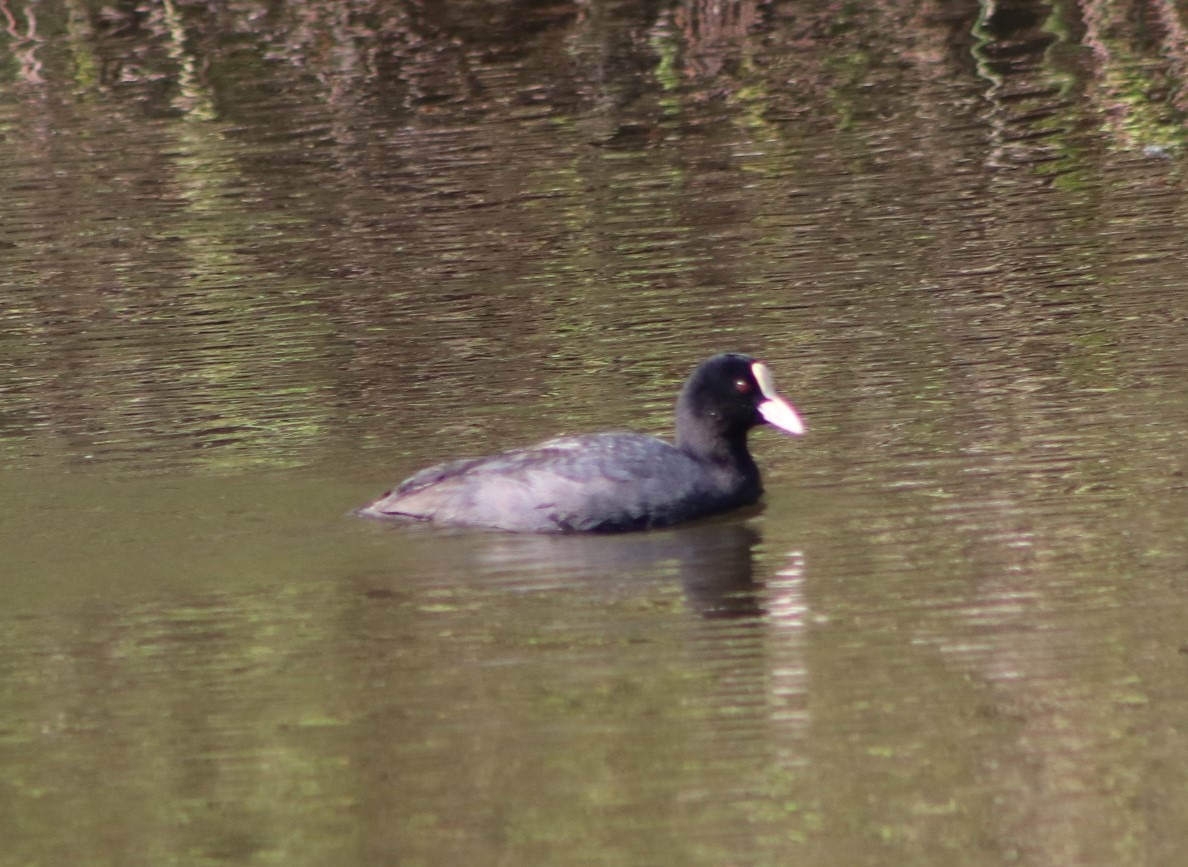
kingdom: Animalia
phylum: Chordata
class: Aves
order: Gruiformes
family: Rallidae
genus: Fulica
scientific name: Fulica atra
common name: Blishøne
